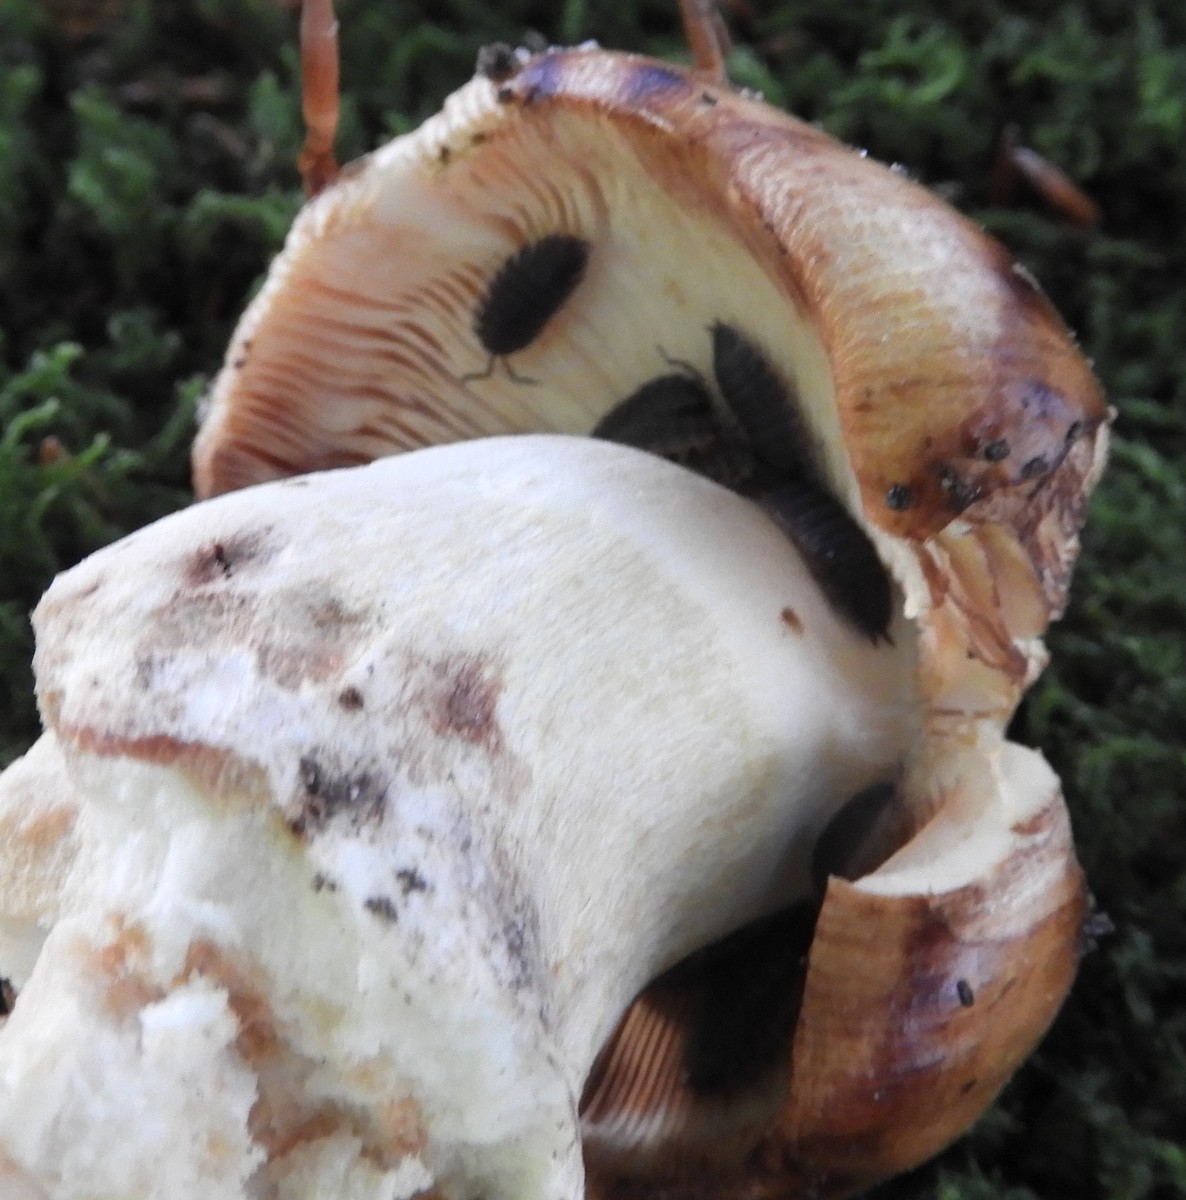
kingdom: Fungi
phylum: Basidiomycota
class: Agaricomycetes
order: Russulales
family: Russulaceae
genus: Russula
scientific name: Russula foetens
